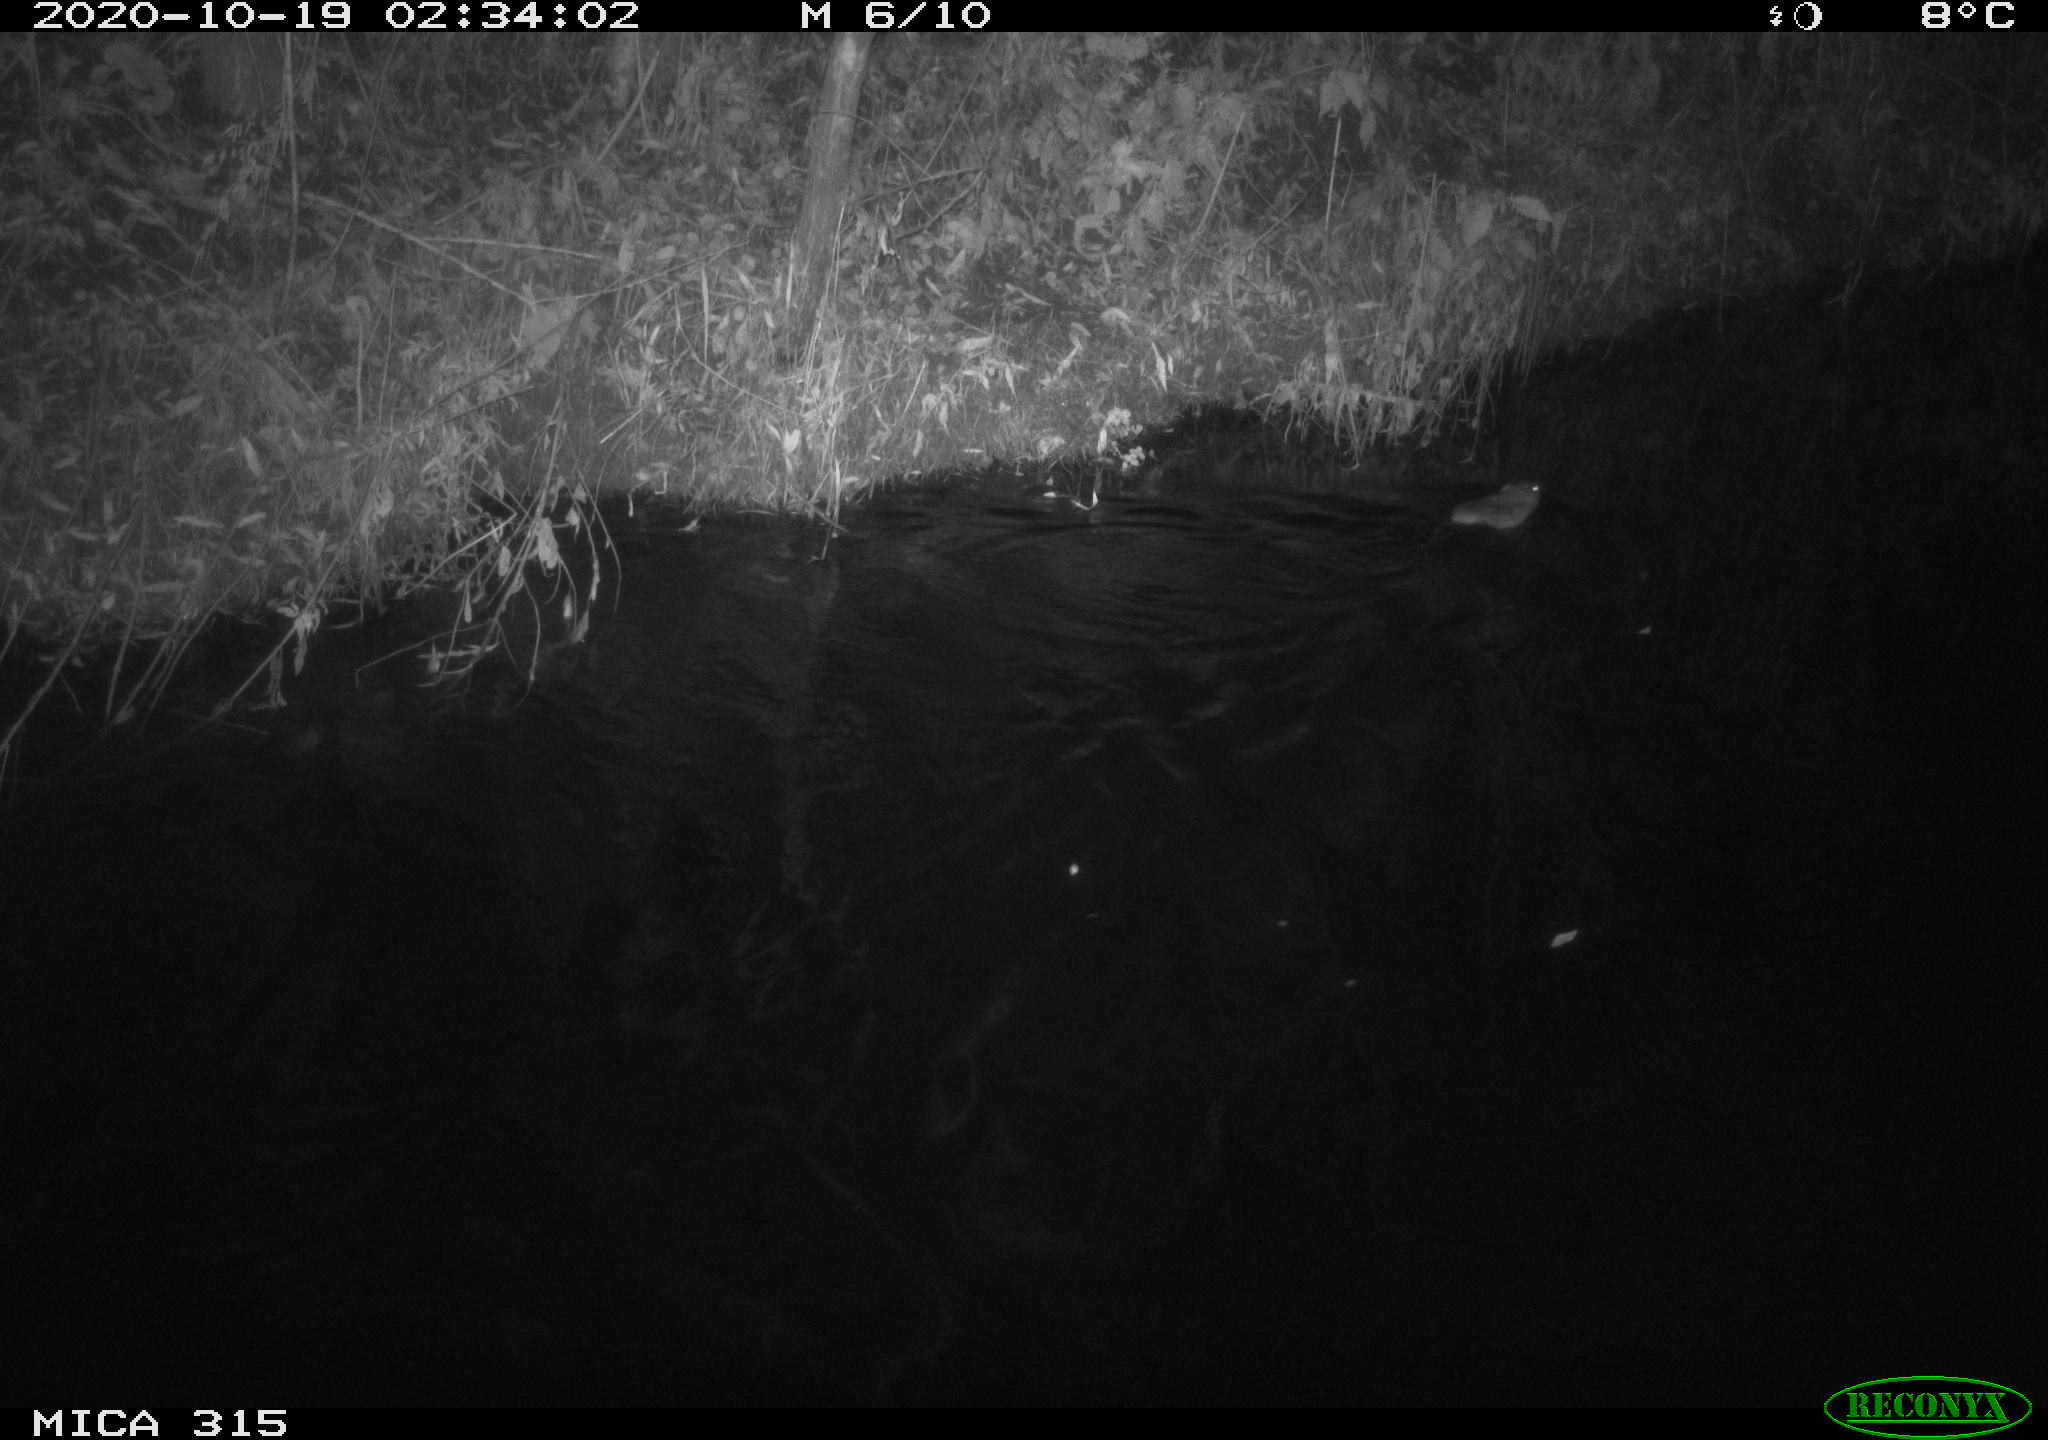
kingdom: Animalia
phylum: Chordata
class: Mammalia
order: Rodentia
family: Cricetidae
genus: Ondatra
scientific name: Ondatra zibethicus
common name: Muskrat
